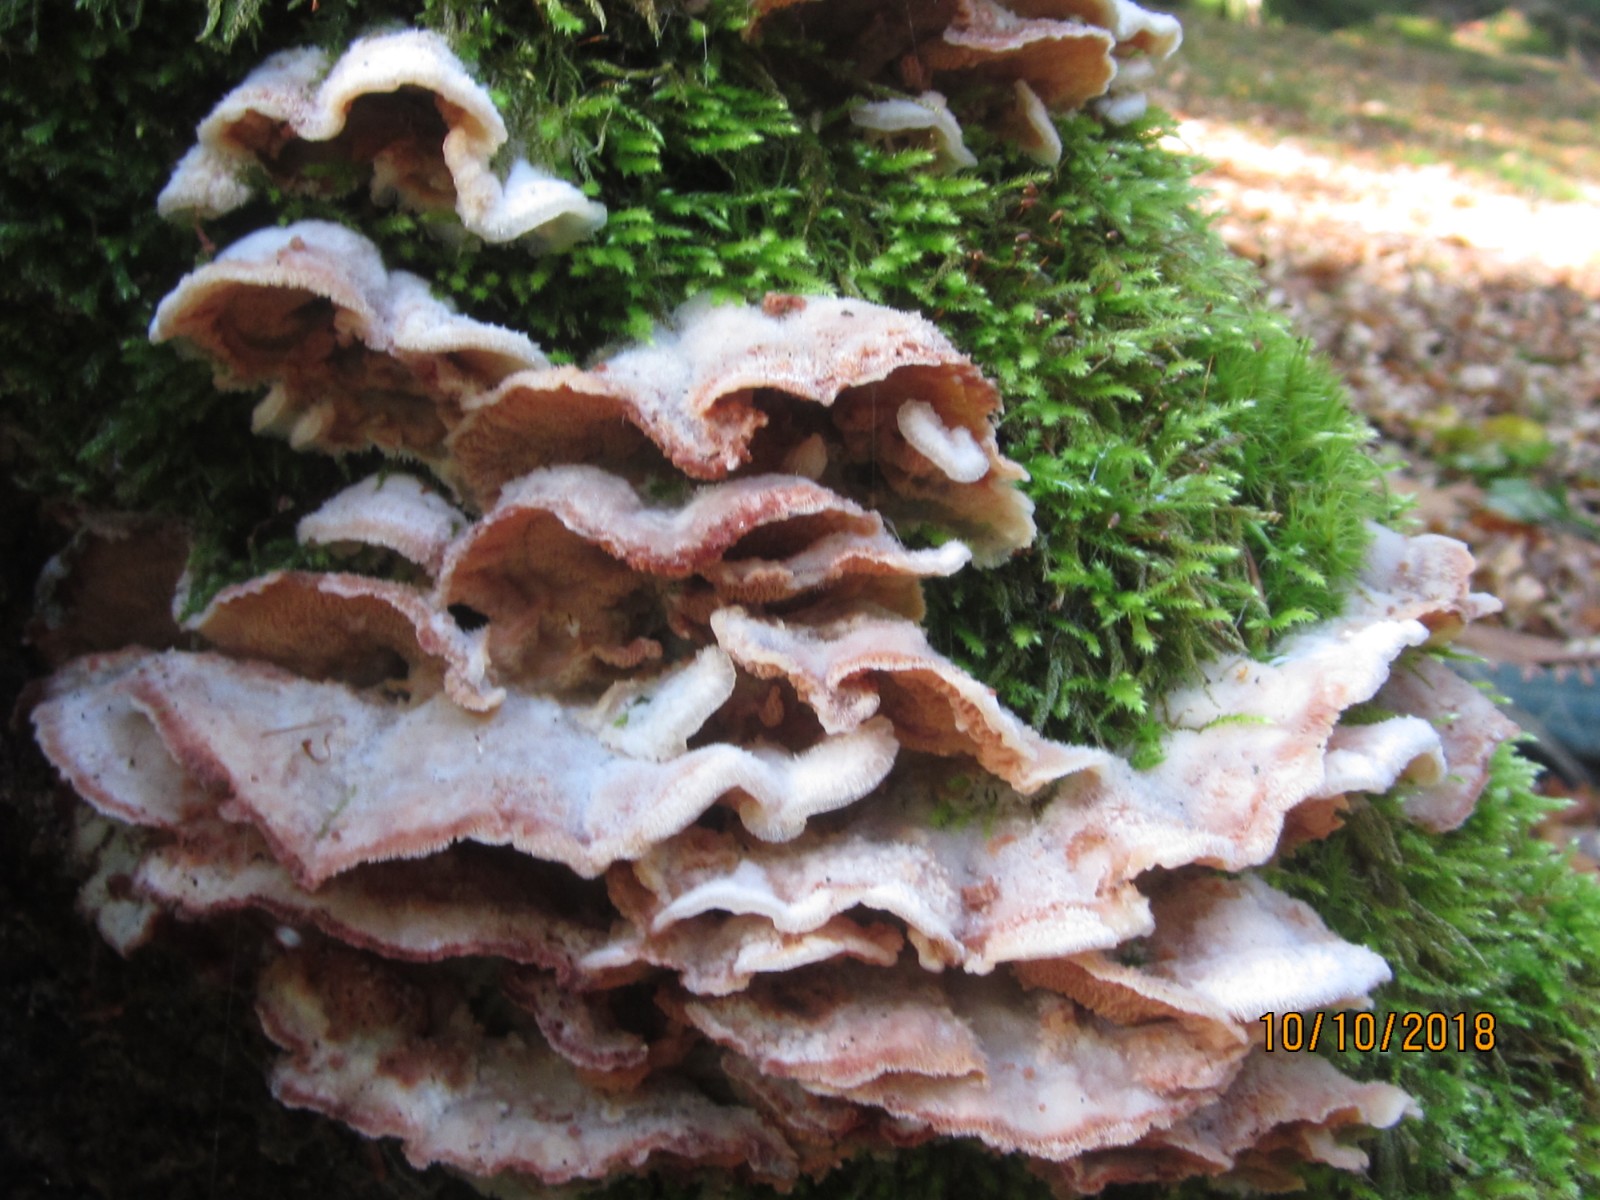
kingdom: Fungi
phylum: Basidiomycota
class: Agaricomycetes
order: Polyporales
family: Meruliaceae
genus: Phlebia
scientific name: Phlebia tremellosa
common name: bævrende åresvamp
